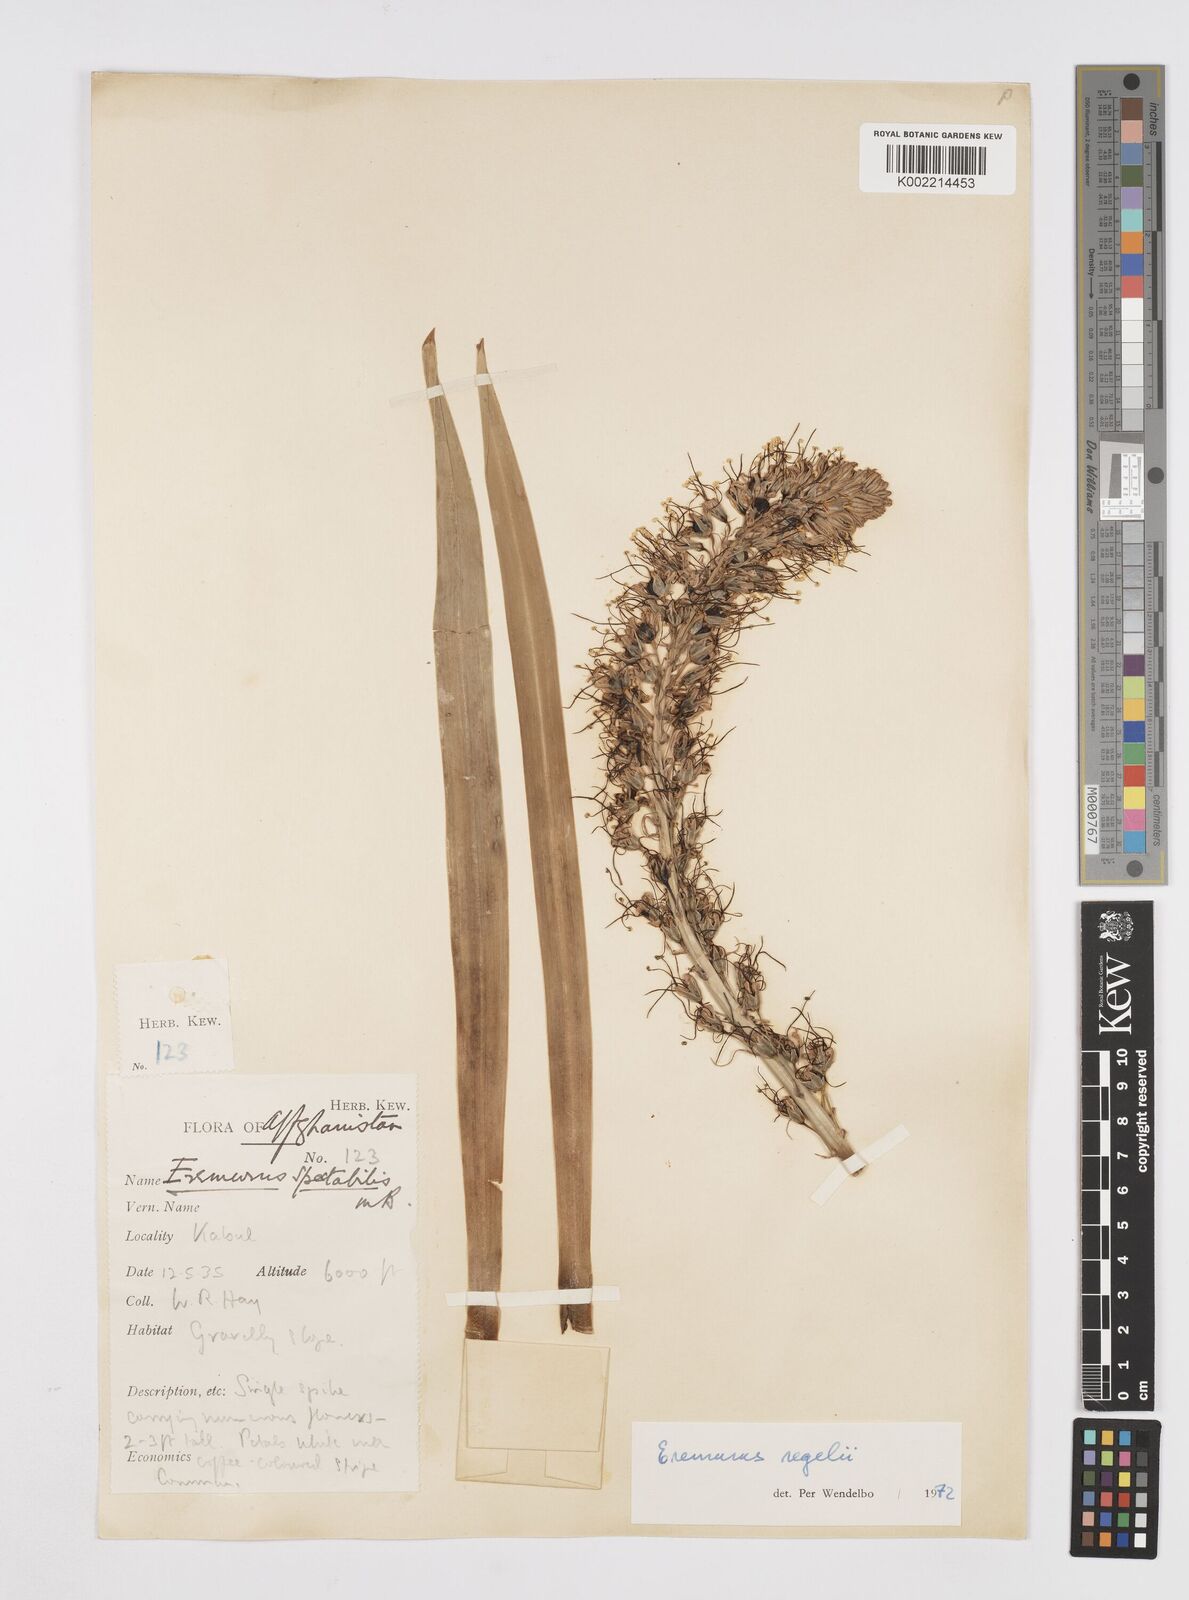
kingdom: Plantae
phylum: Tracheophyta
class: Liliopsida
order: Asparagales
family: Asphodelaceae
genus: Eremurus
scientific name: Eremurus regelii
